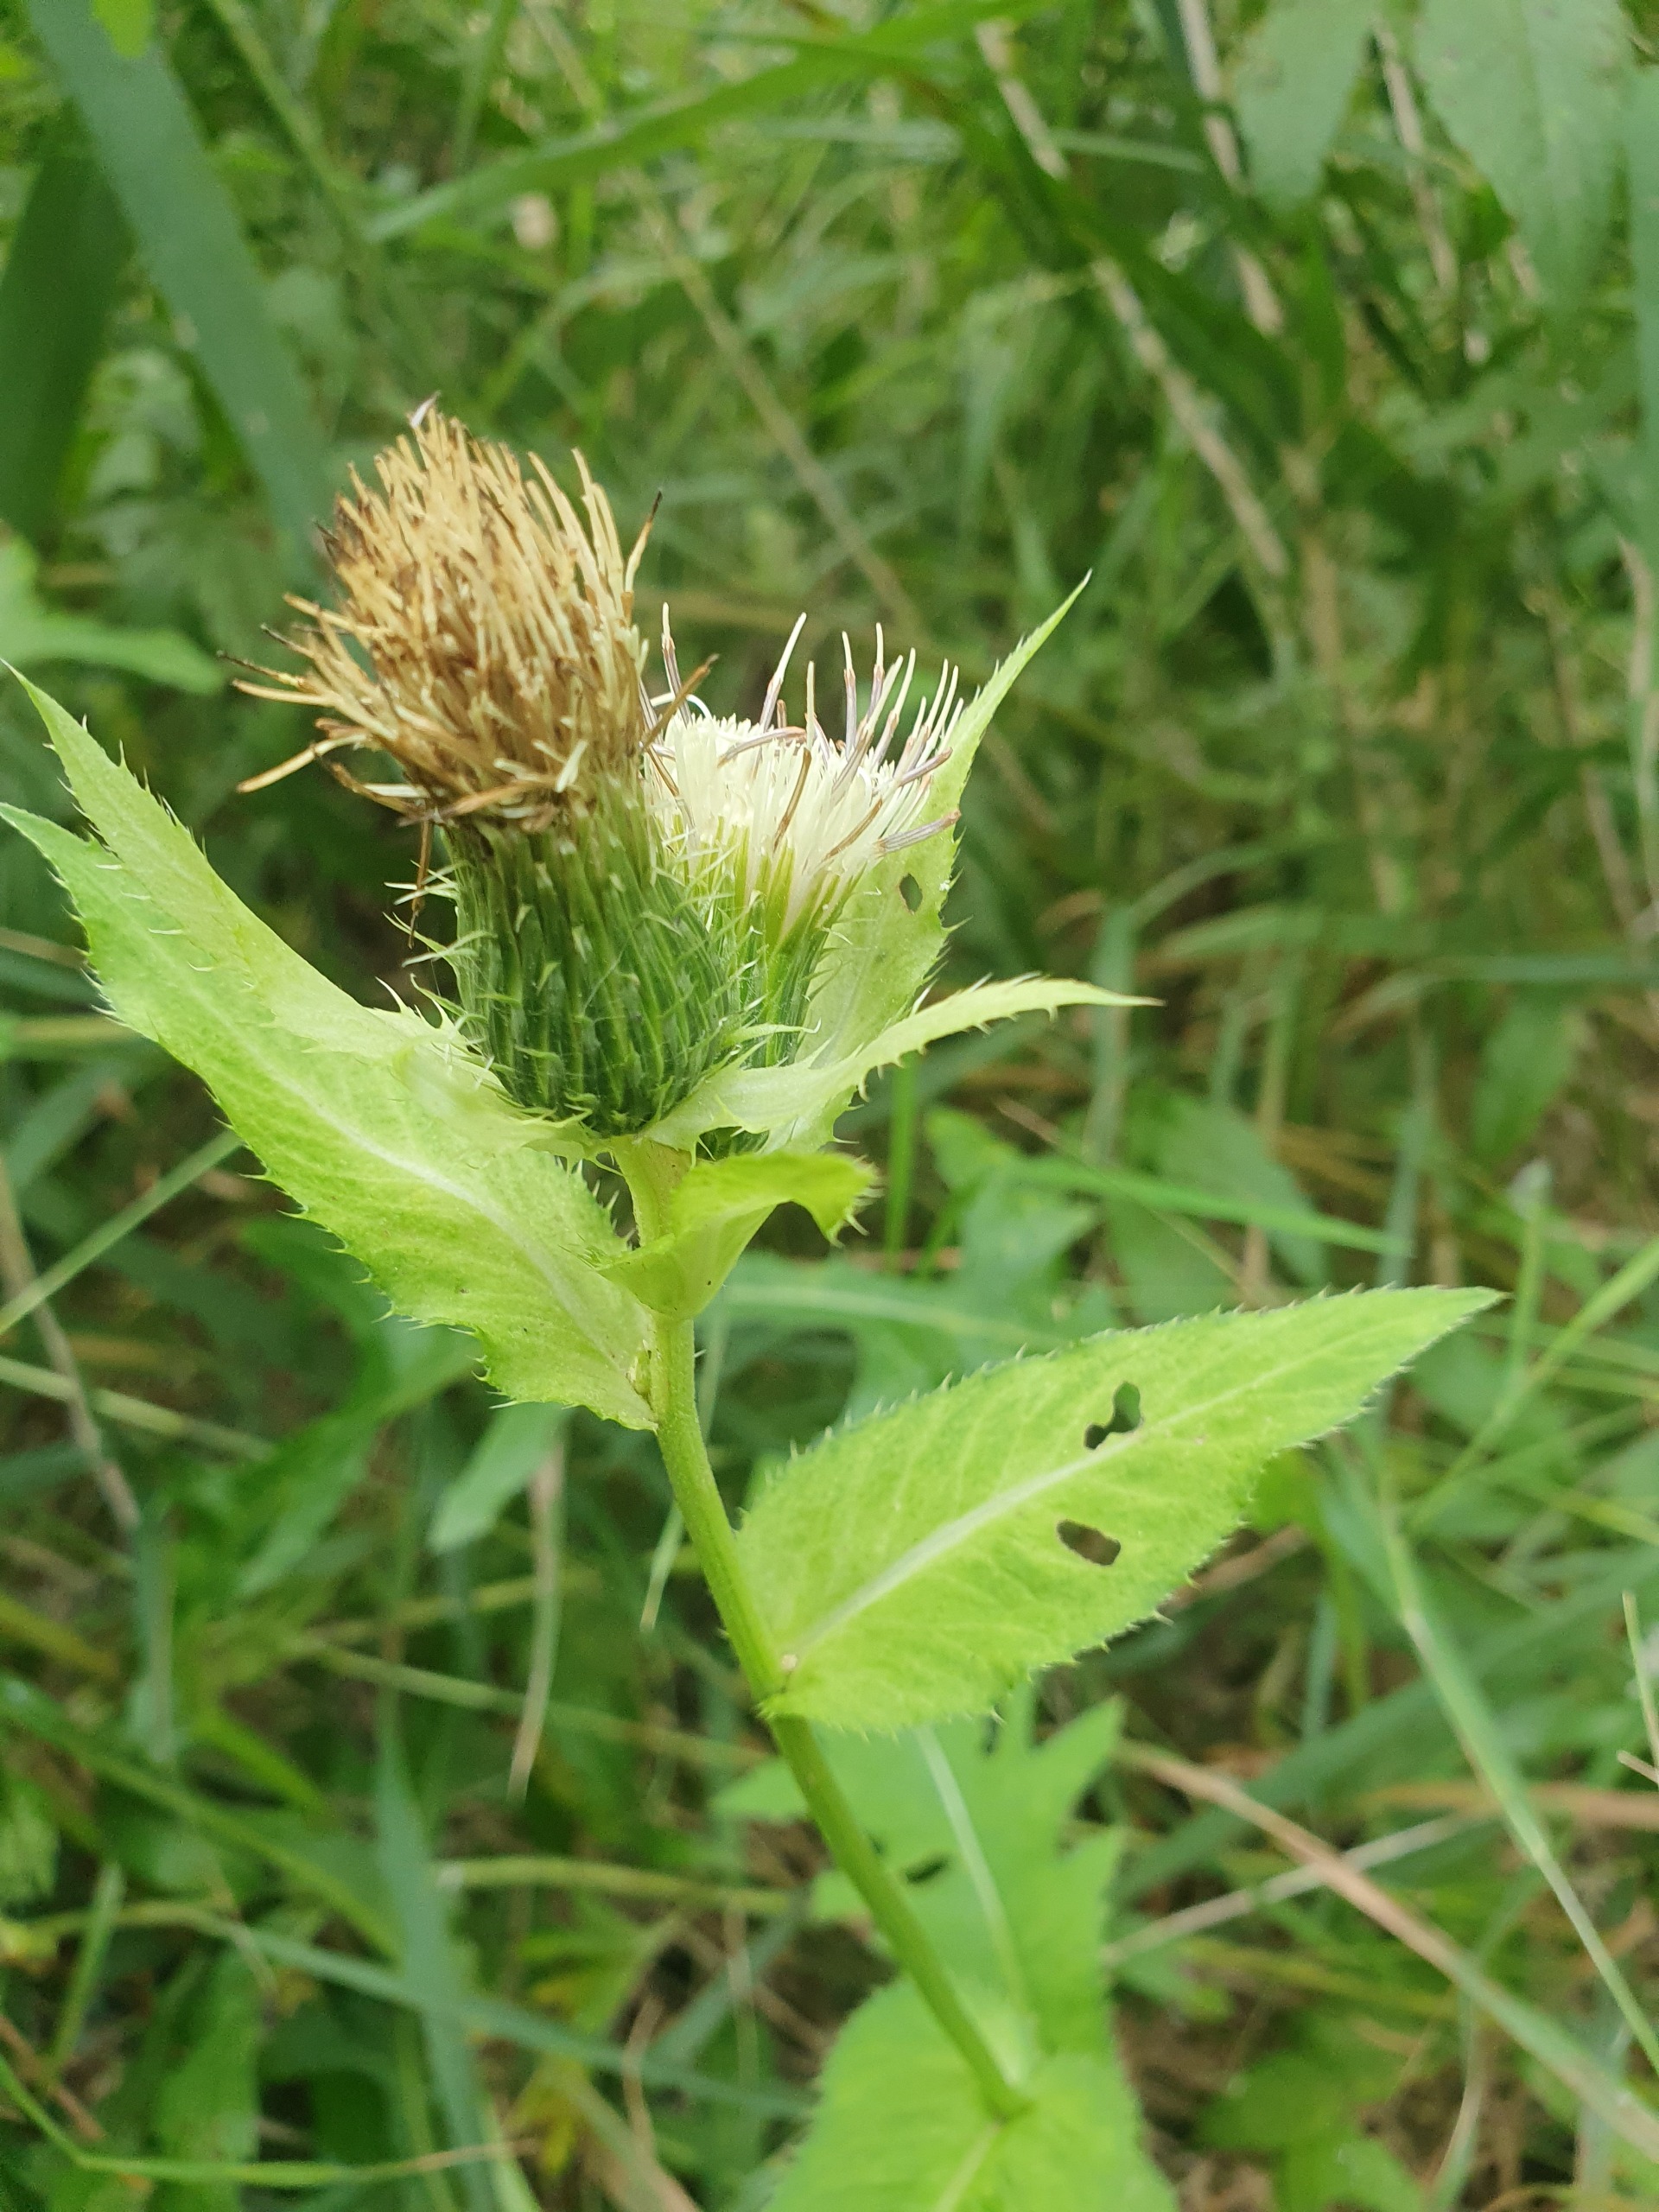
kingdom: Plantae
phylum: Tracheophyta
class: Magnoliopsida
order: Asterales
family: Asteraceae
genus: Cirsium
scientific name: Cirsium oleraceum
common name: Kål-tidsel
